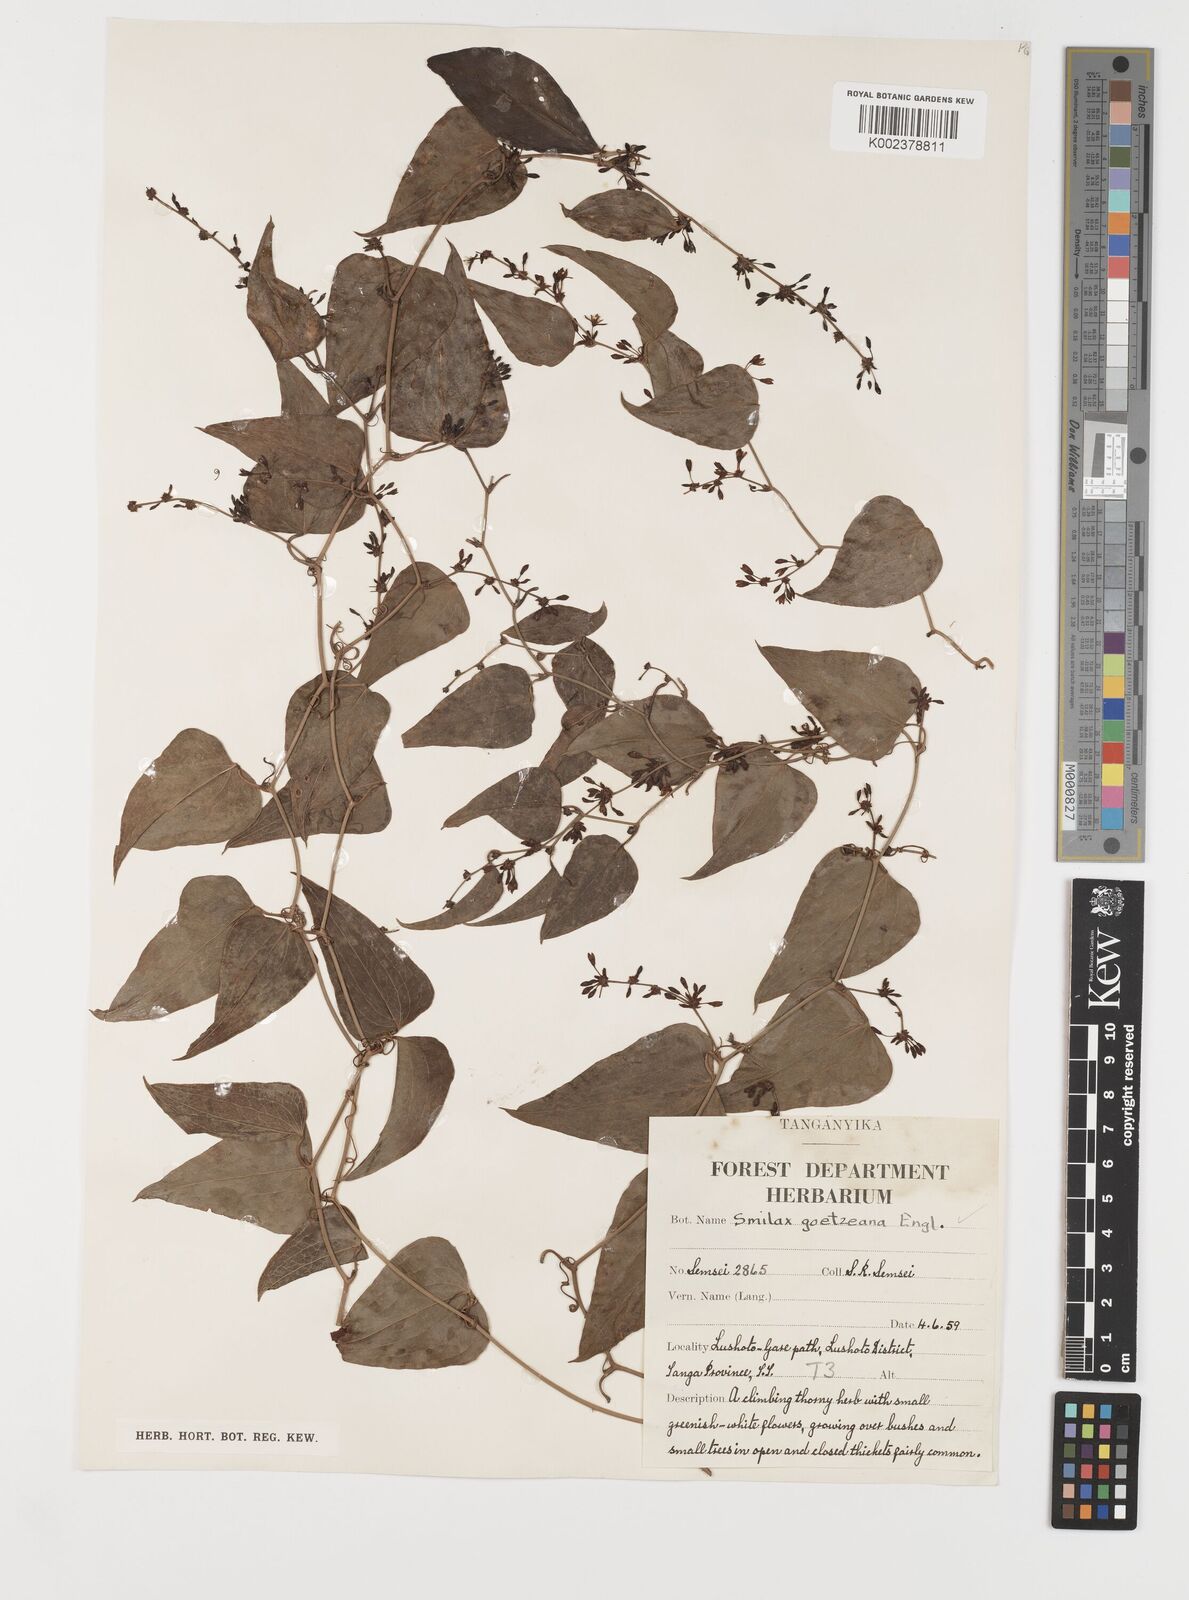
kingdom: Plantae
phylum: Tracheophyta
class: Liliopsida
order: Liliales
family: Smilacaceae
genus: Smilax
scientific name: Smilax aspera
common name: Common smilax
